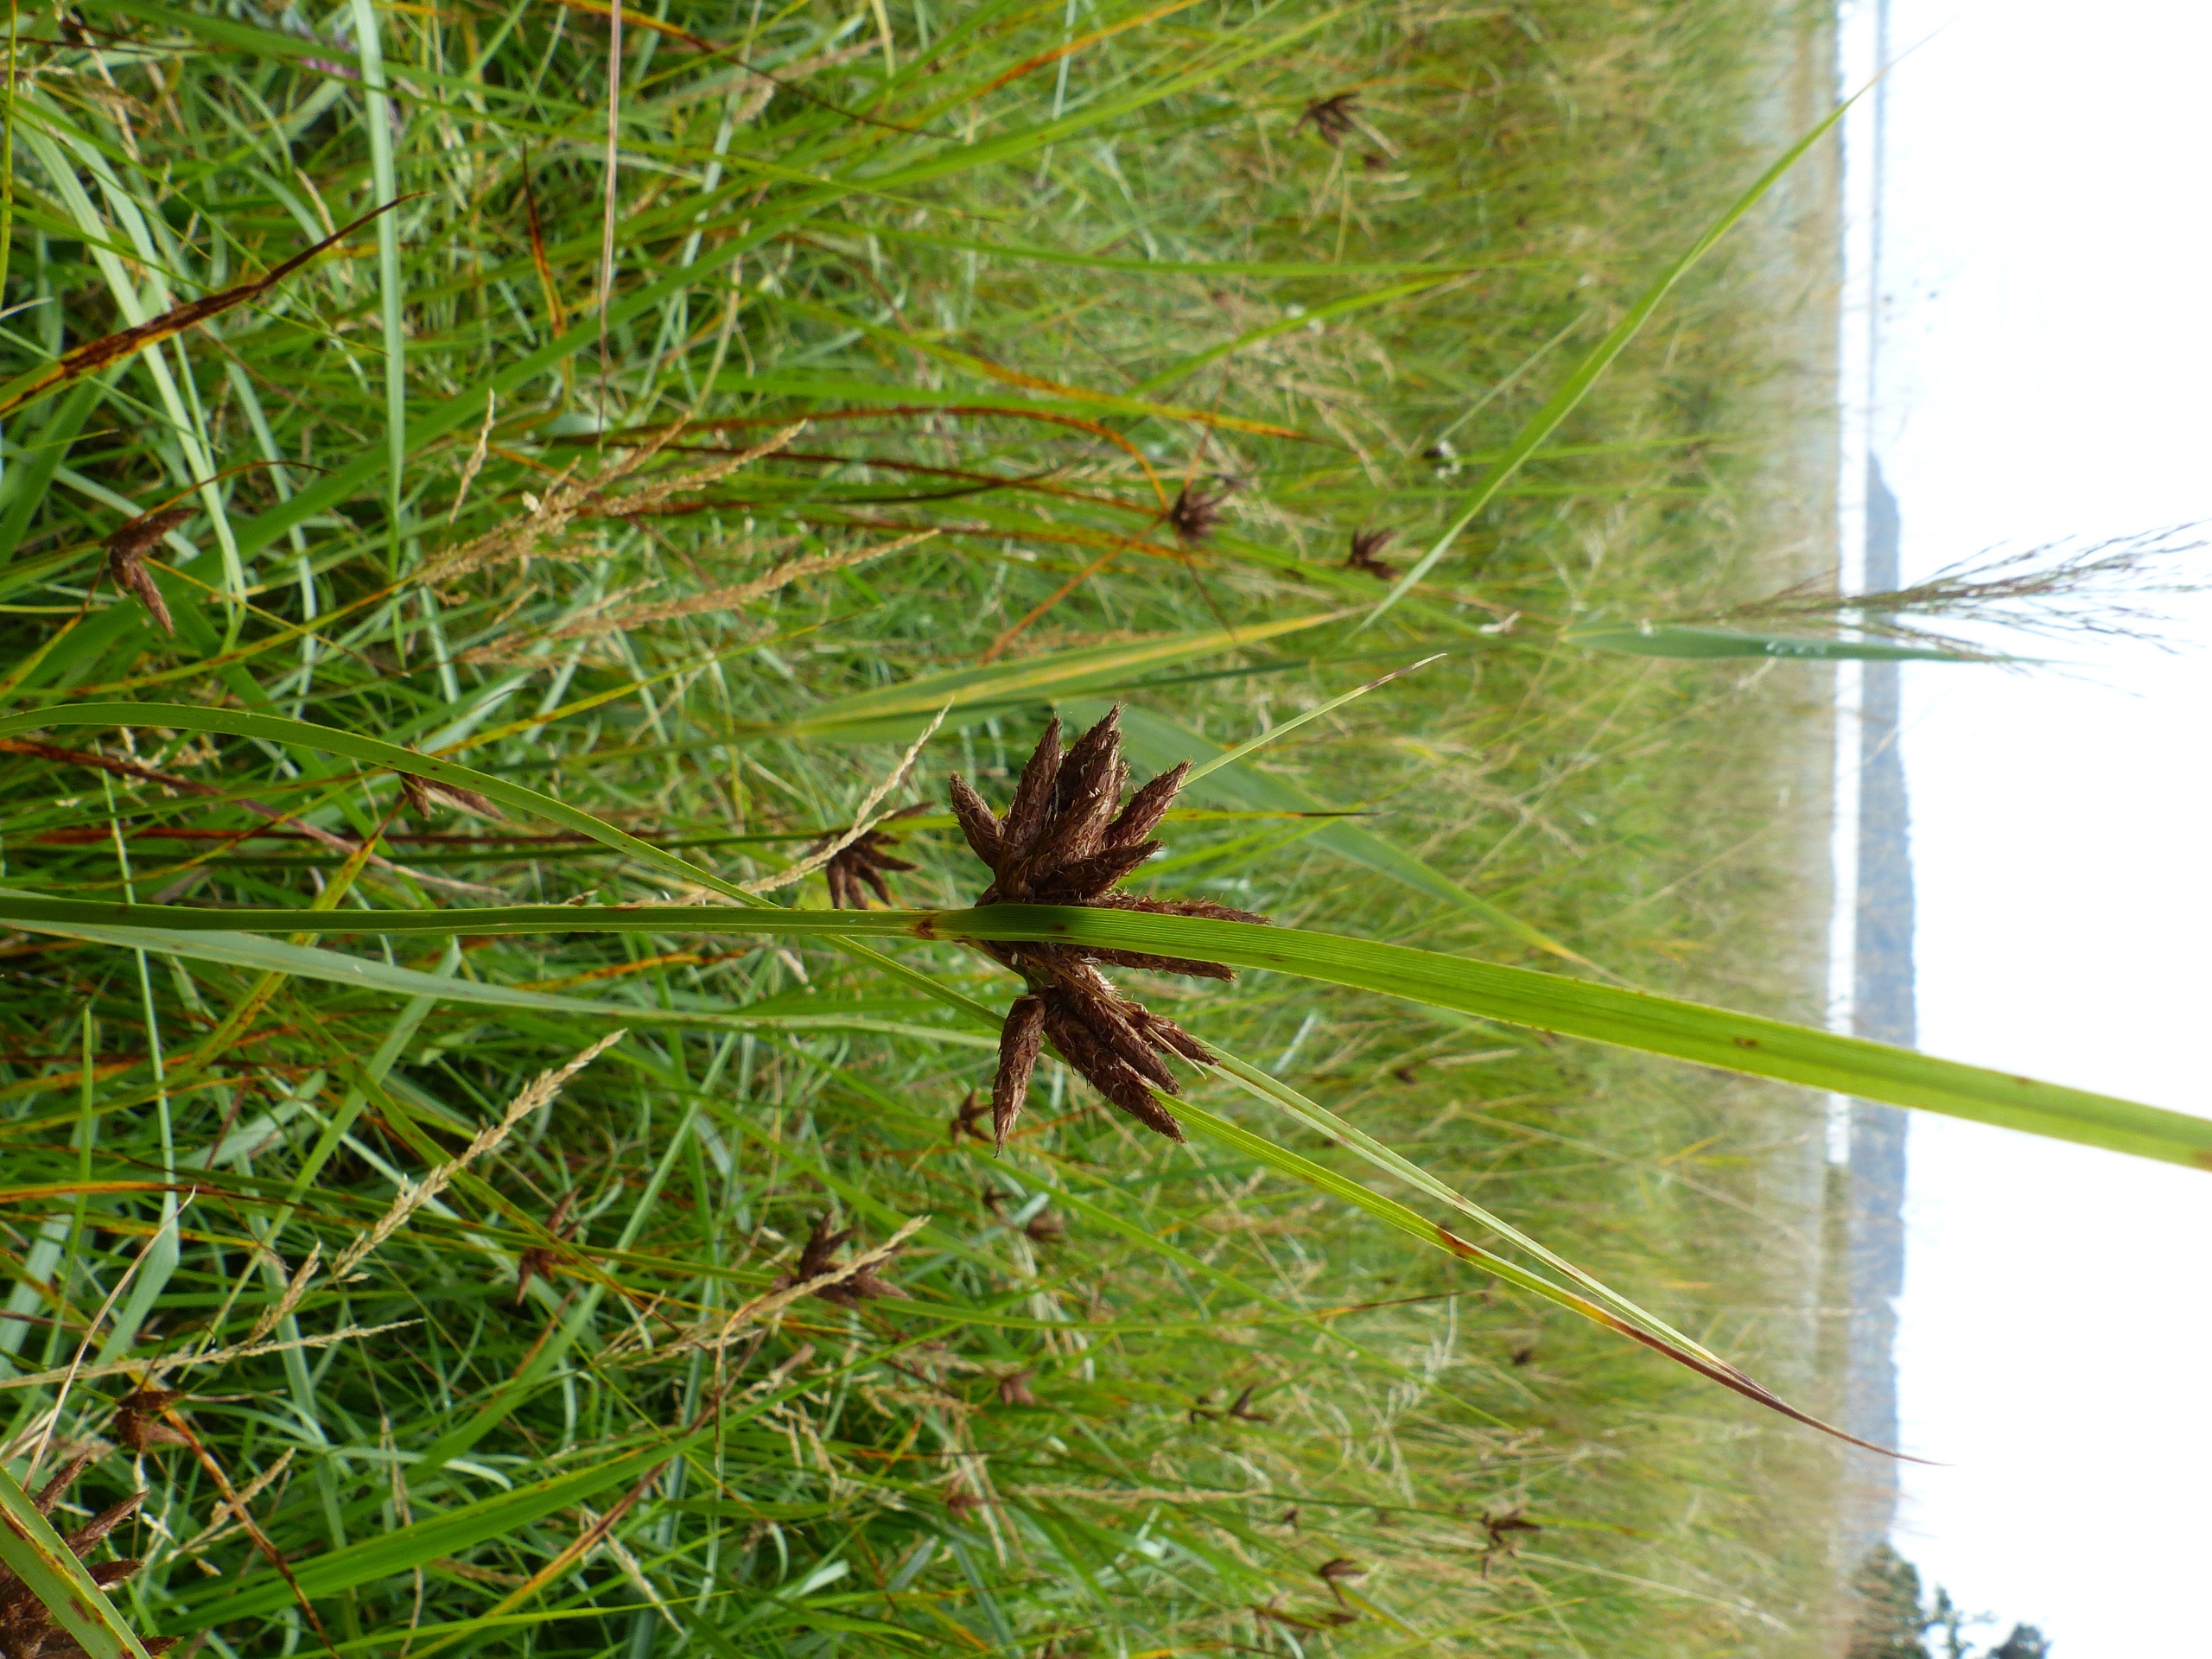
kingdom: Plantae
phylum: Tracheophyta
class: Liliopsida
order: Poales
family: Cyperaceae
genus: Bolboschoenus
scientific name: Bolboschoenus maritimus
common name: Strand-kogleaks
